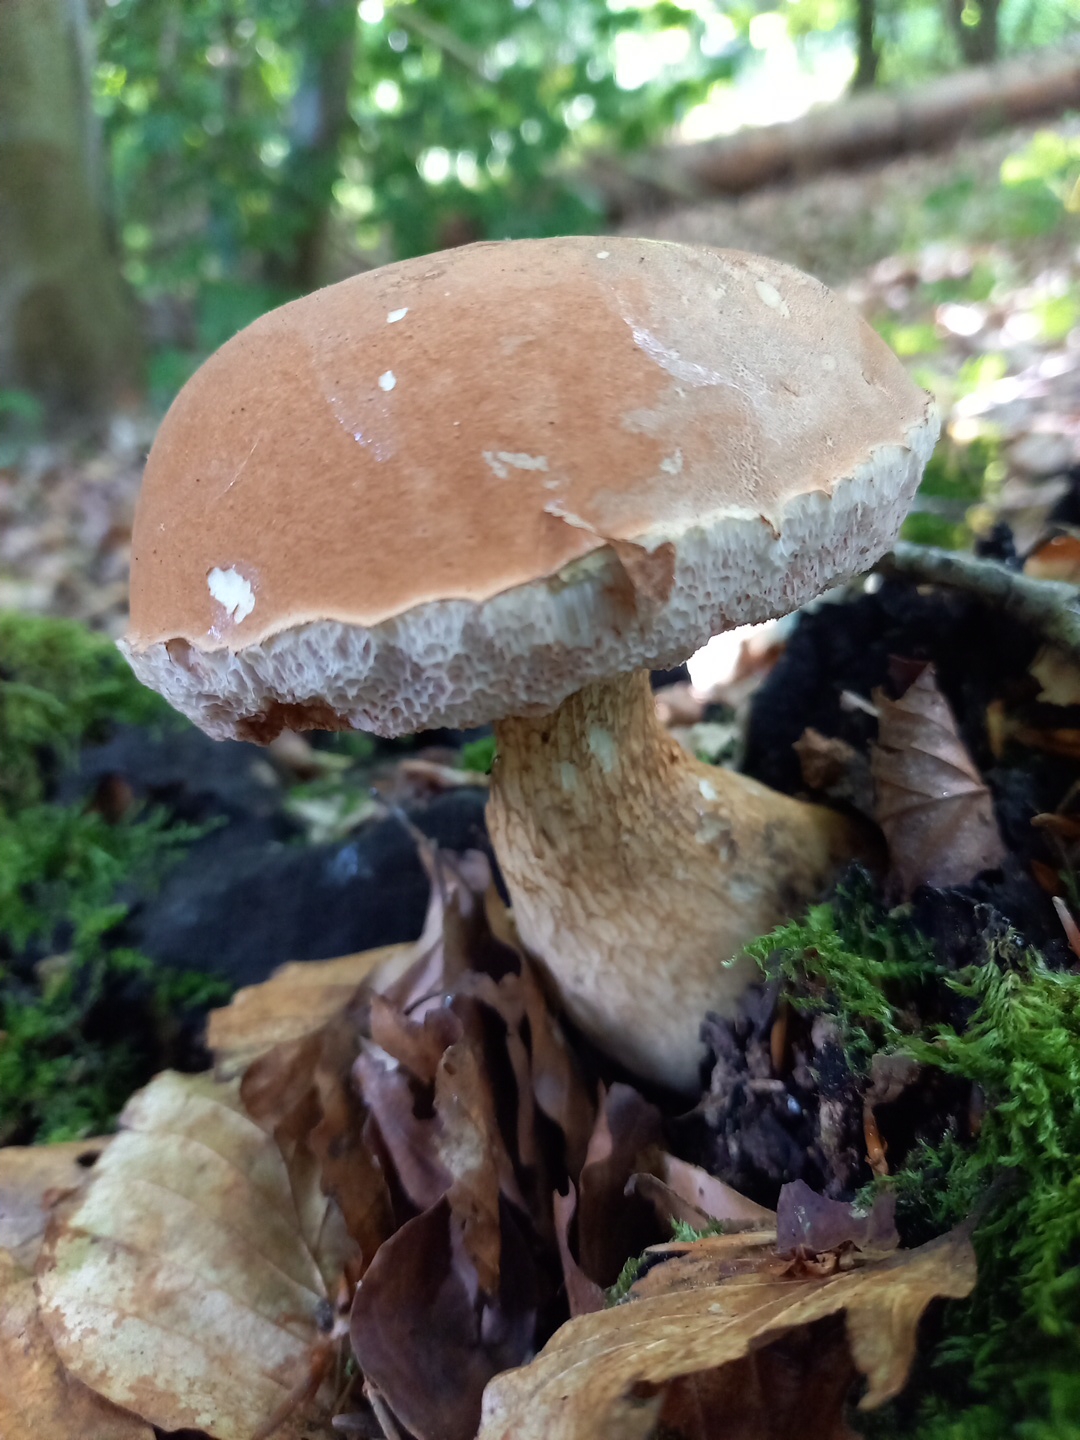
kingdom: Fungi
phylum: Basidiomycota
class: Agaricomycetes
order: Boletales
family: Boletaceae
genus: Tylopilus
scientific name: Tylopilus felleus
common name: galderørhat
